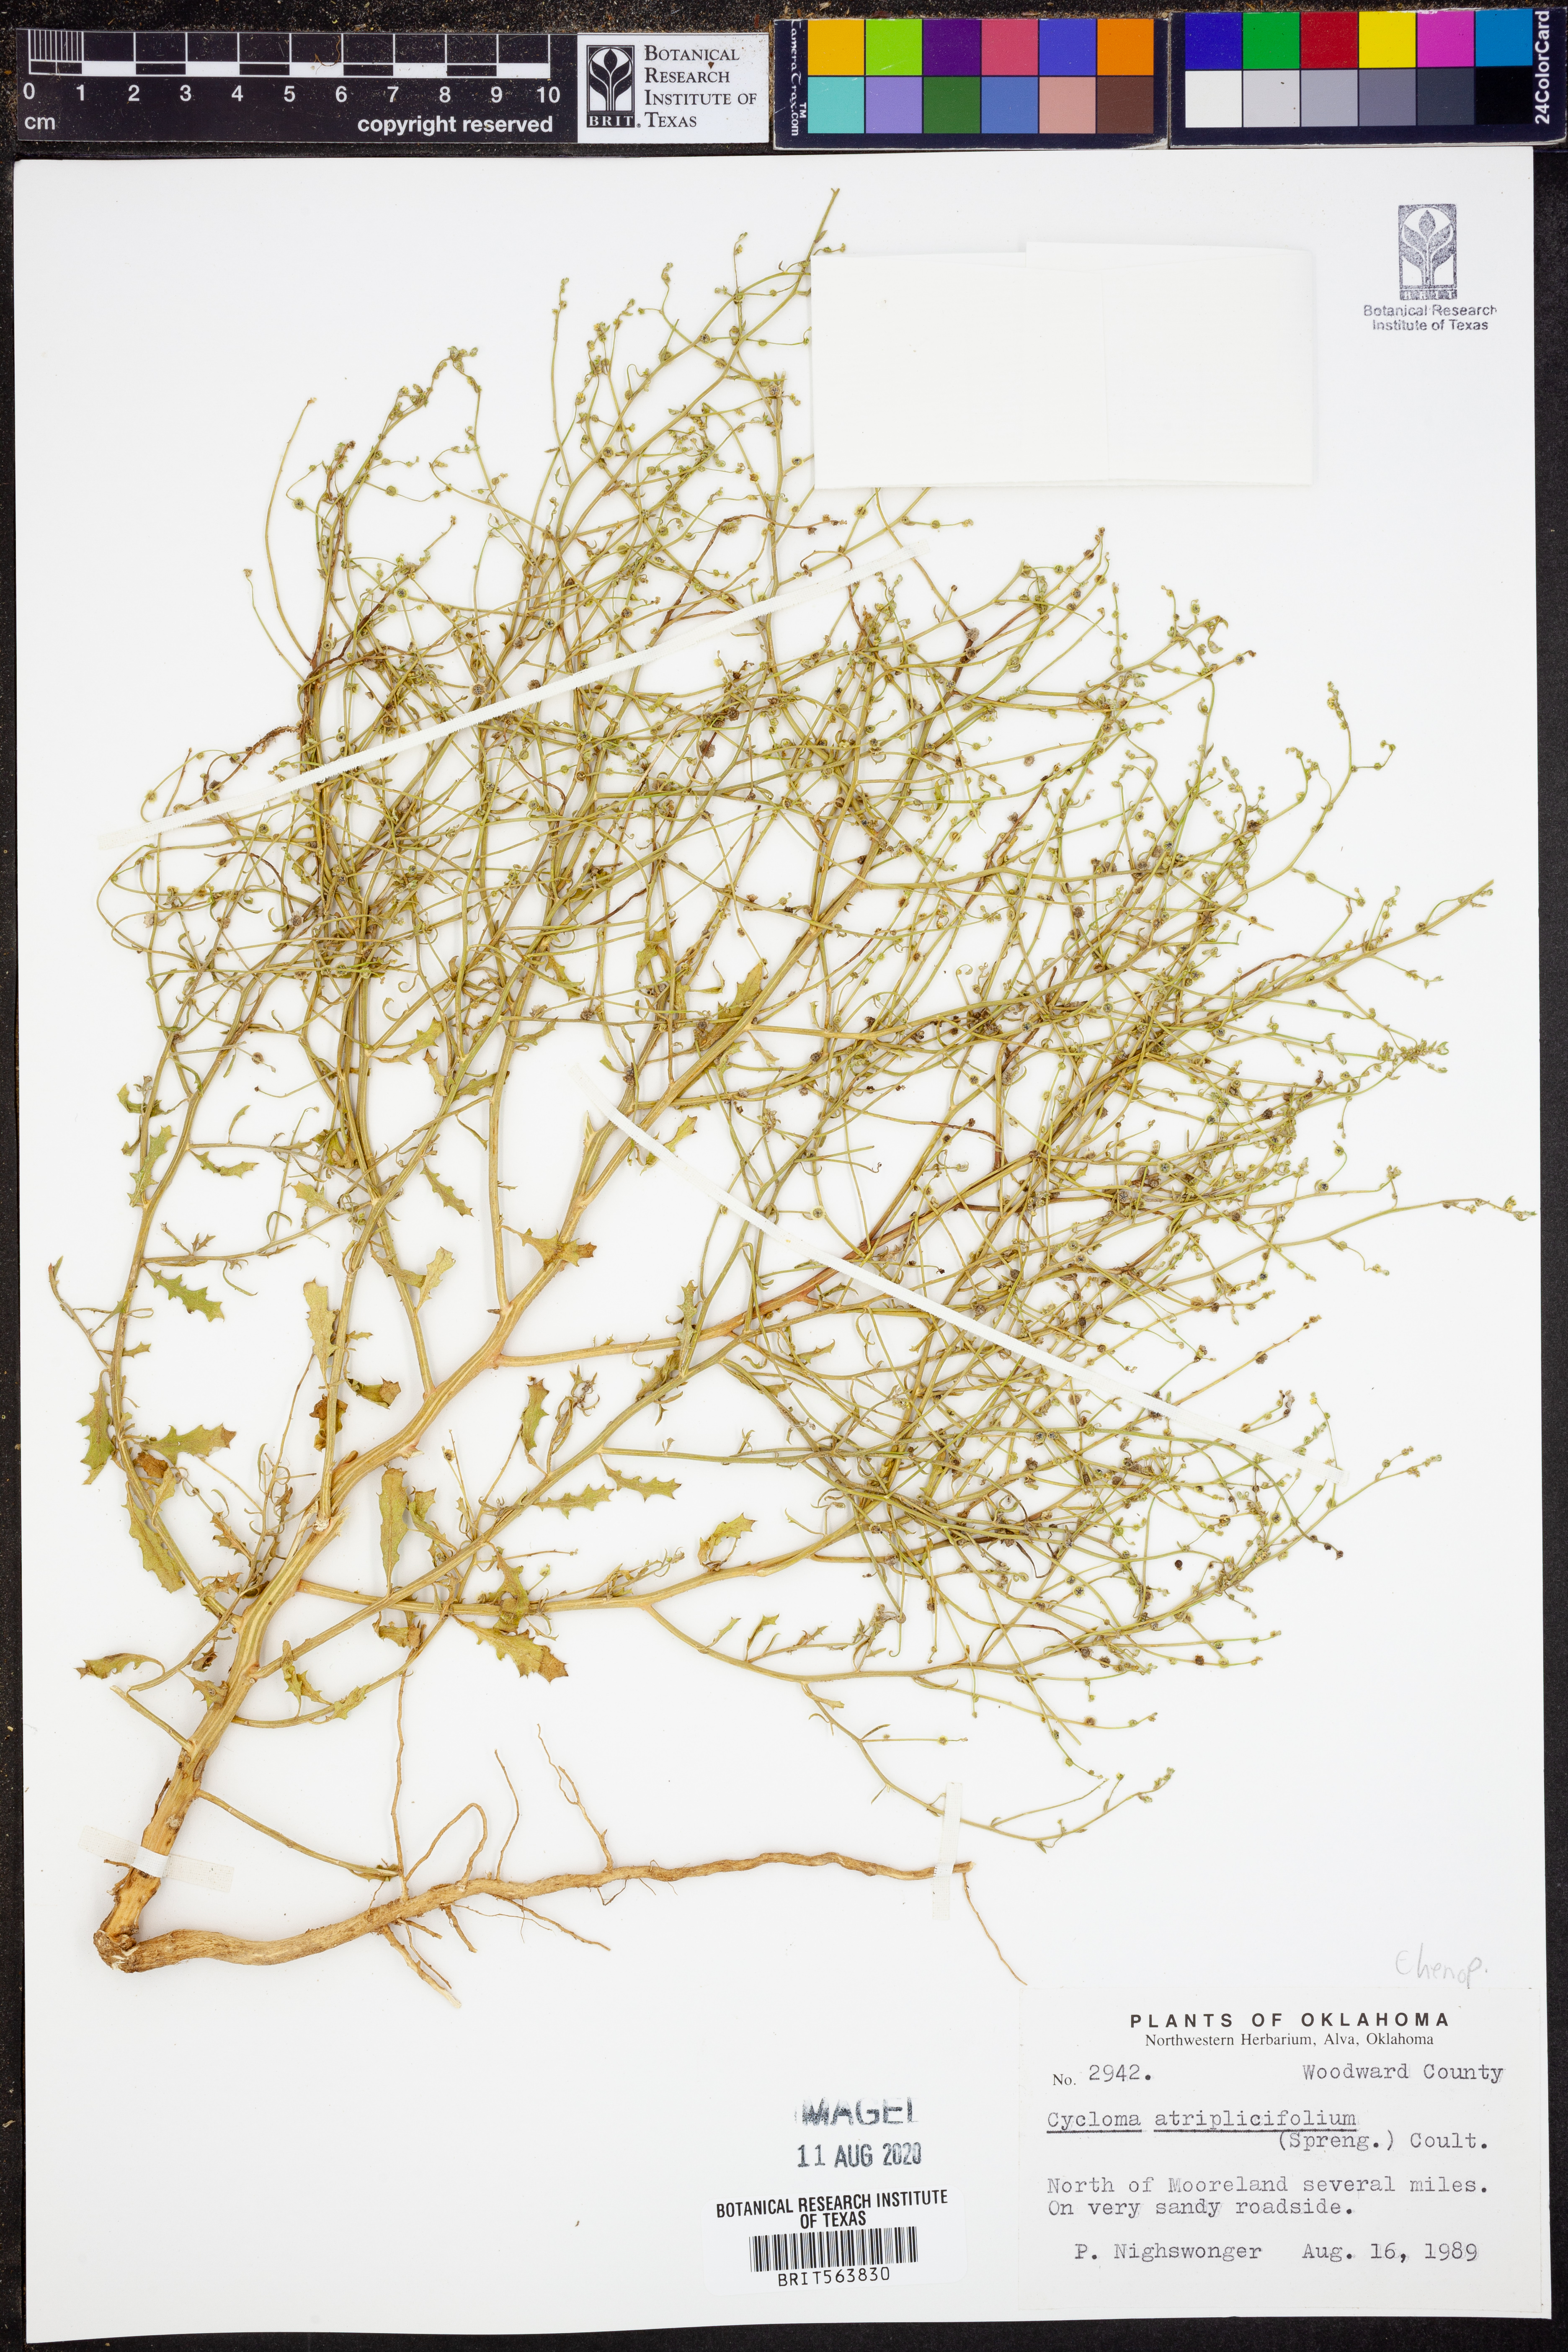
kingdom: Plantae
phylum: Tracheophyta
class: Magnoliopsida
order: Caryophyllales
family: Amaranthaceae
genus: Dysphania
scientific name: Dysphania atriplicifolia
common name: Plains tumbleweed
